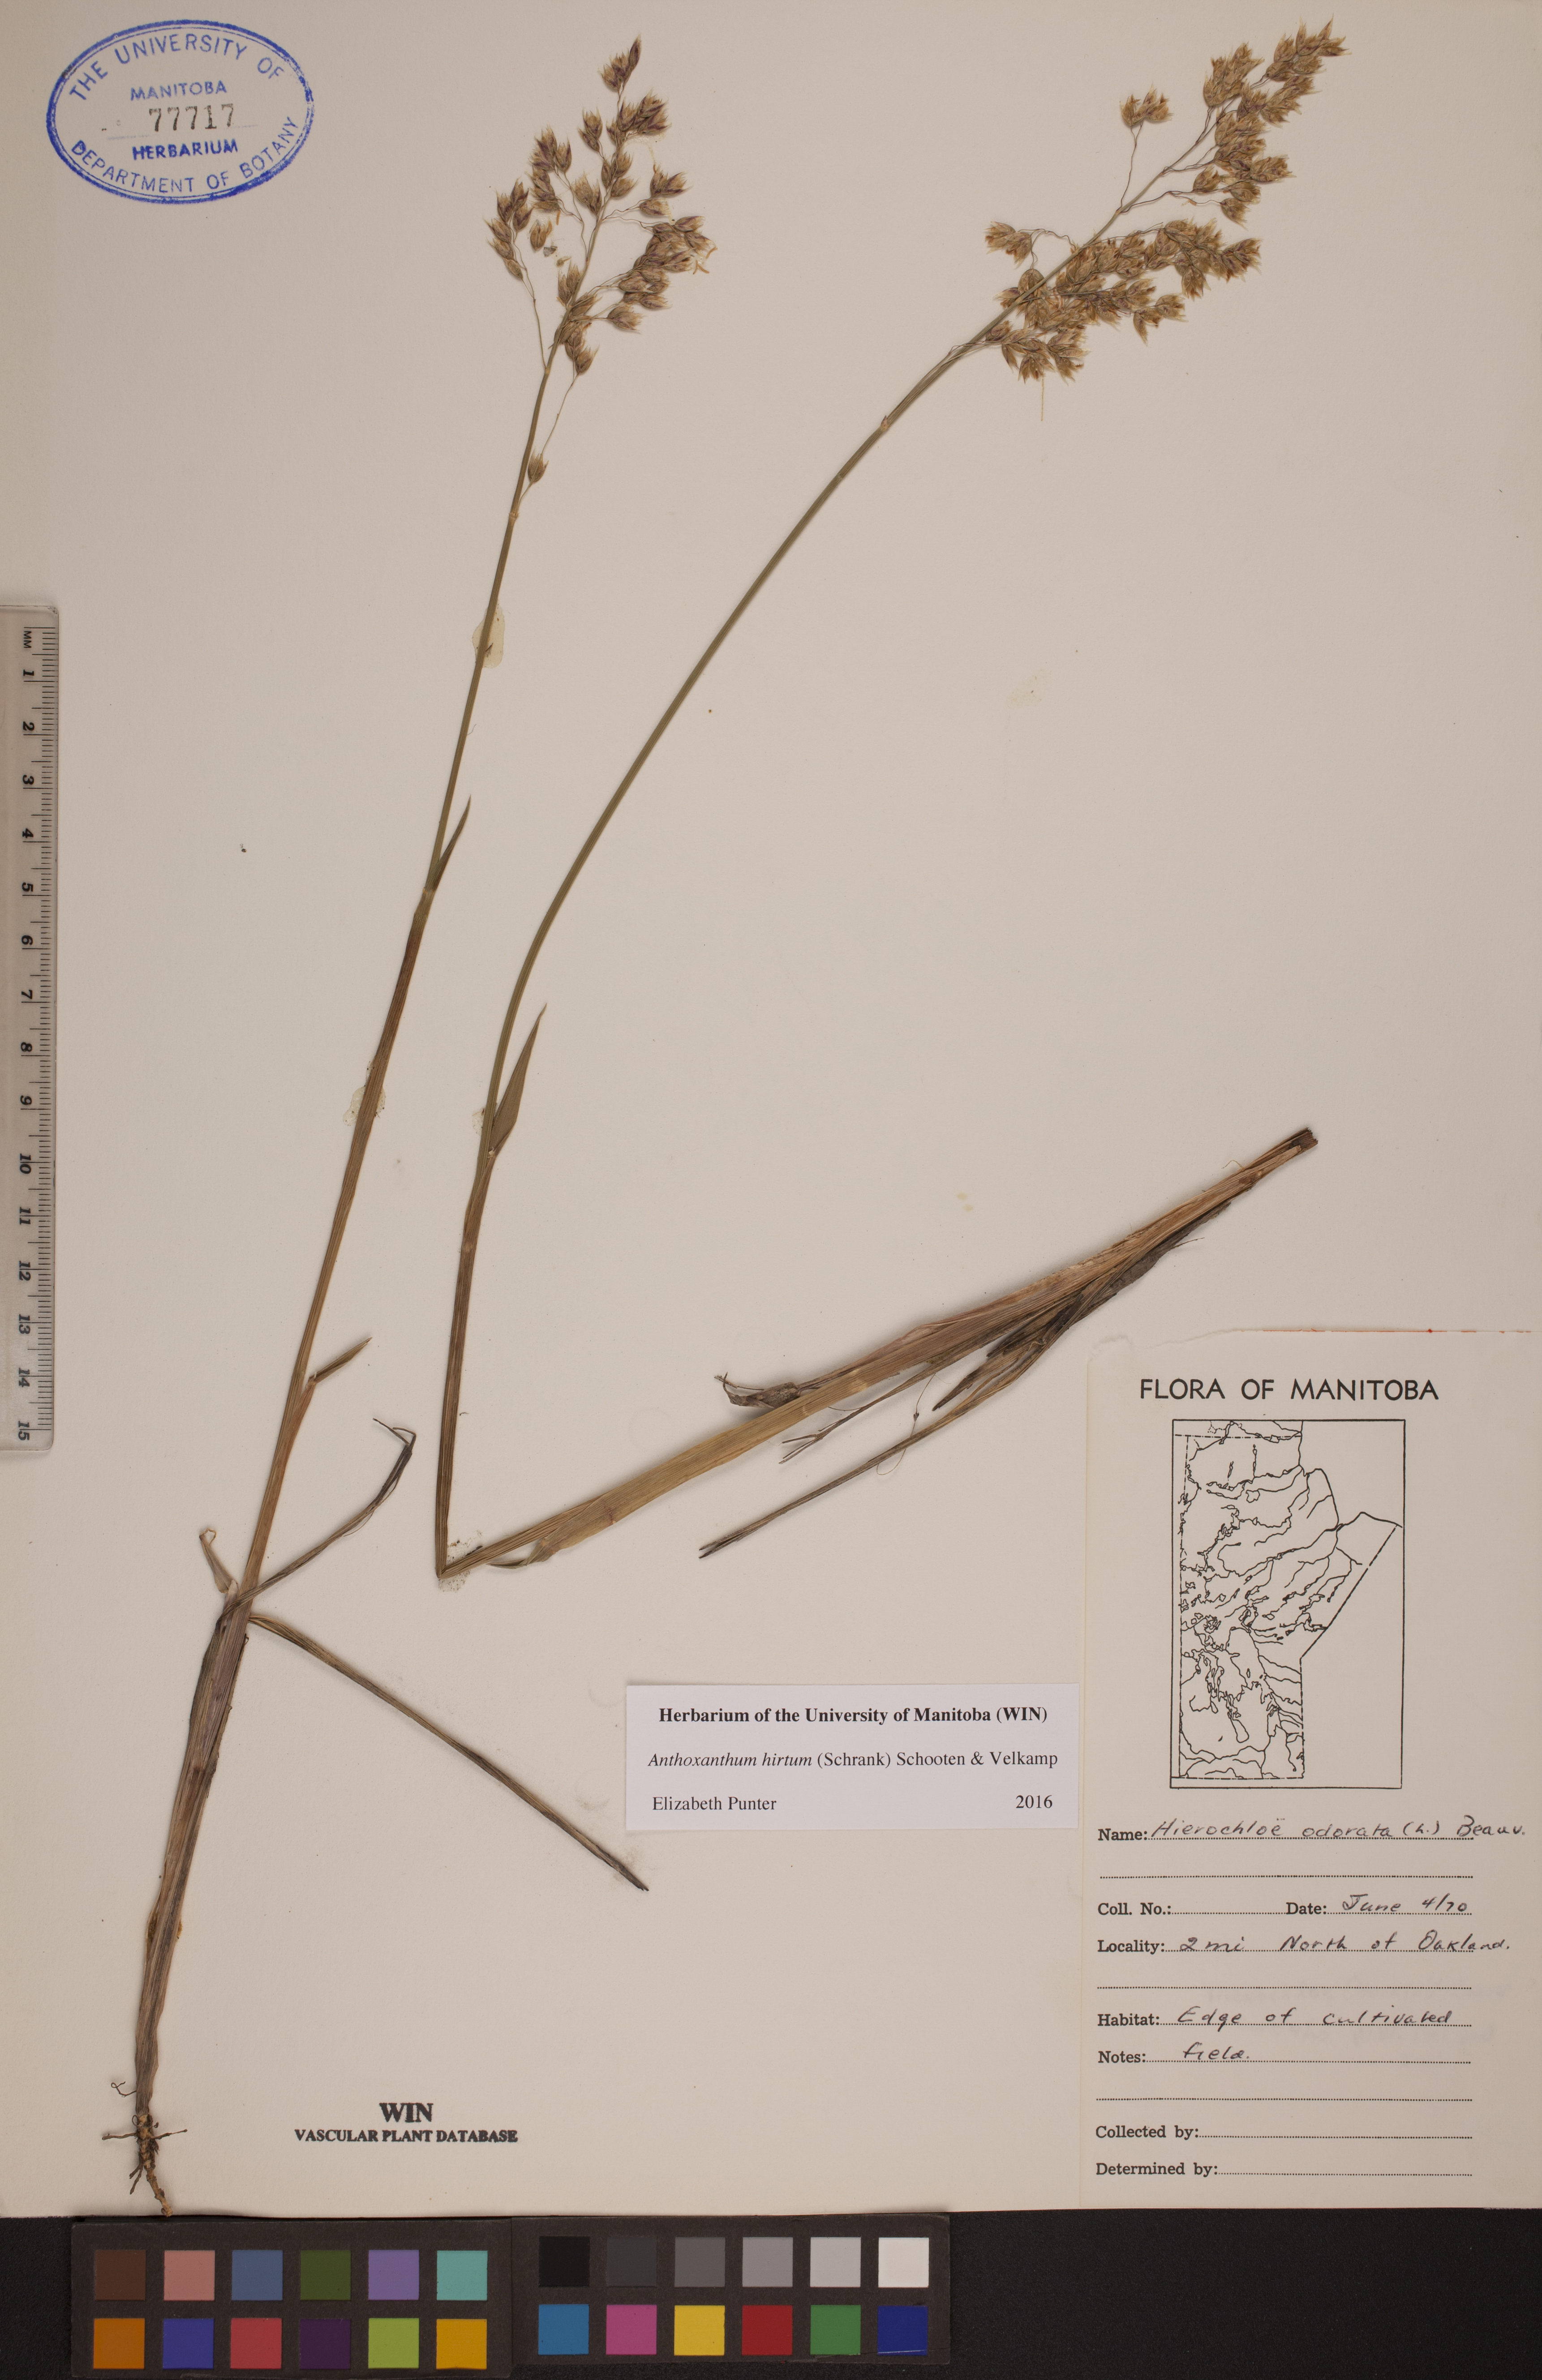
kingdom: Plantae
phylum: Tracheophyta
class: Liliopsida
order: Poales
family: Poaceae
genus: Anthoxanthum
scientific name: Anthoxanthum nitens
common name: Holy grass
